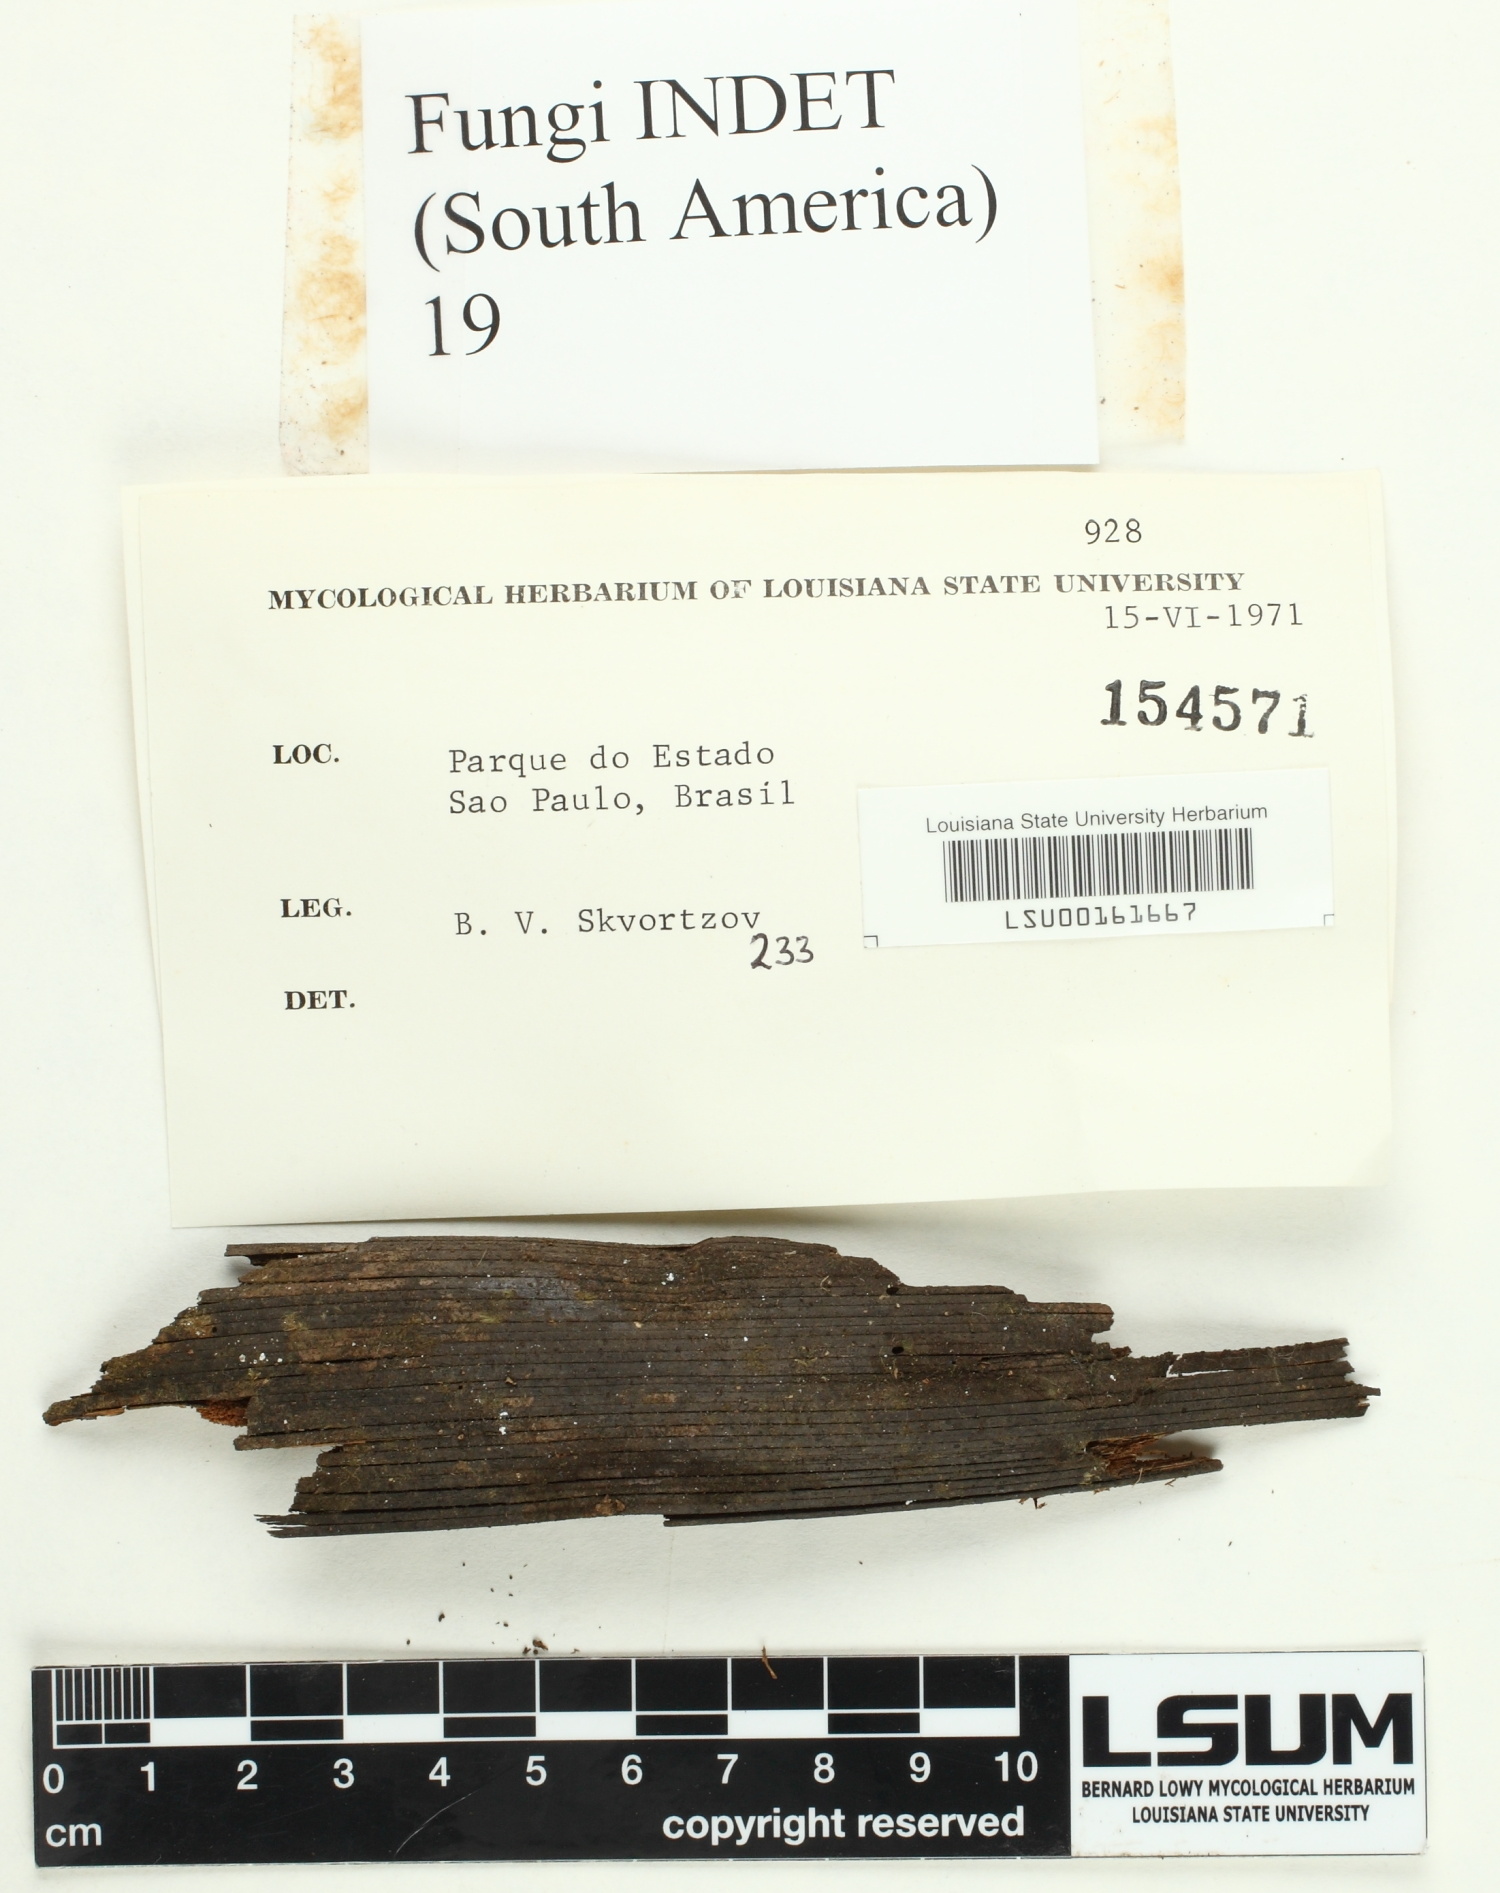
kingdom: Fungi
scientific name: Fungi
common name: Fungi
